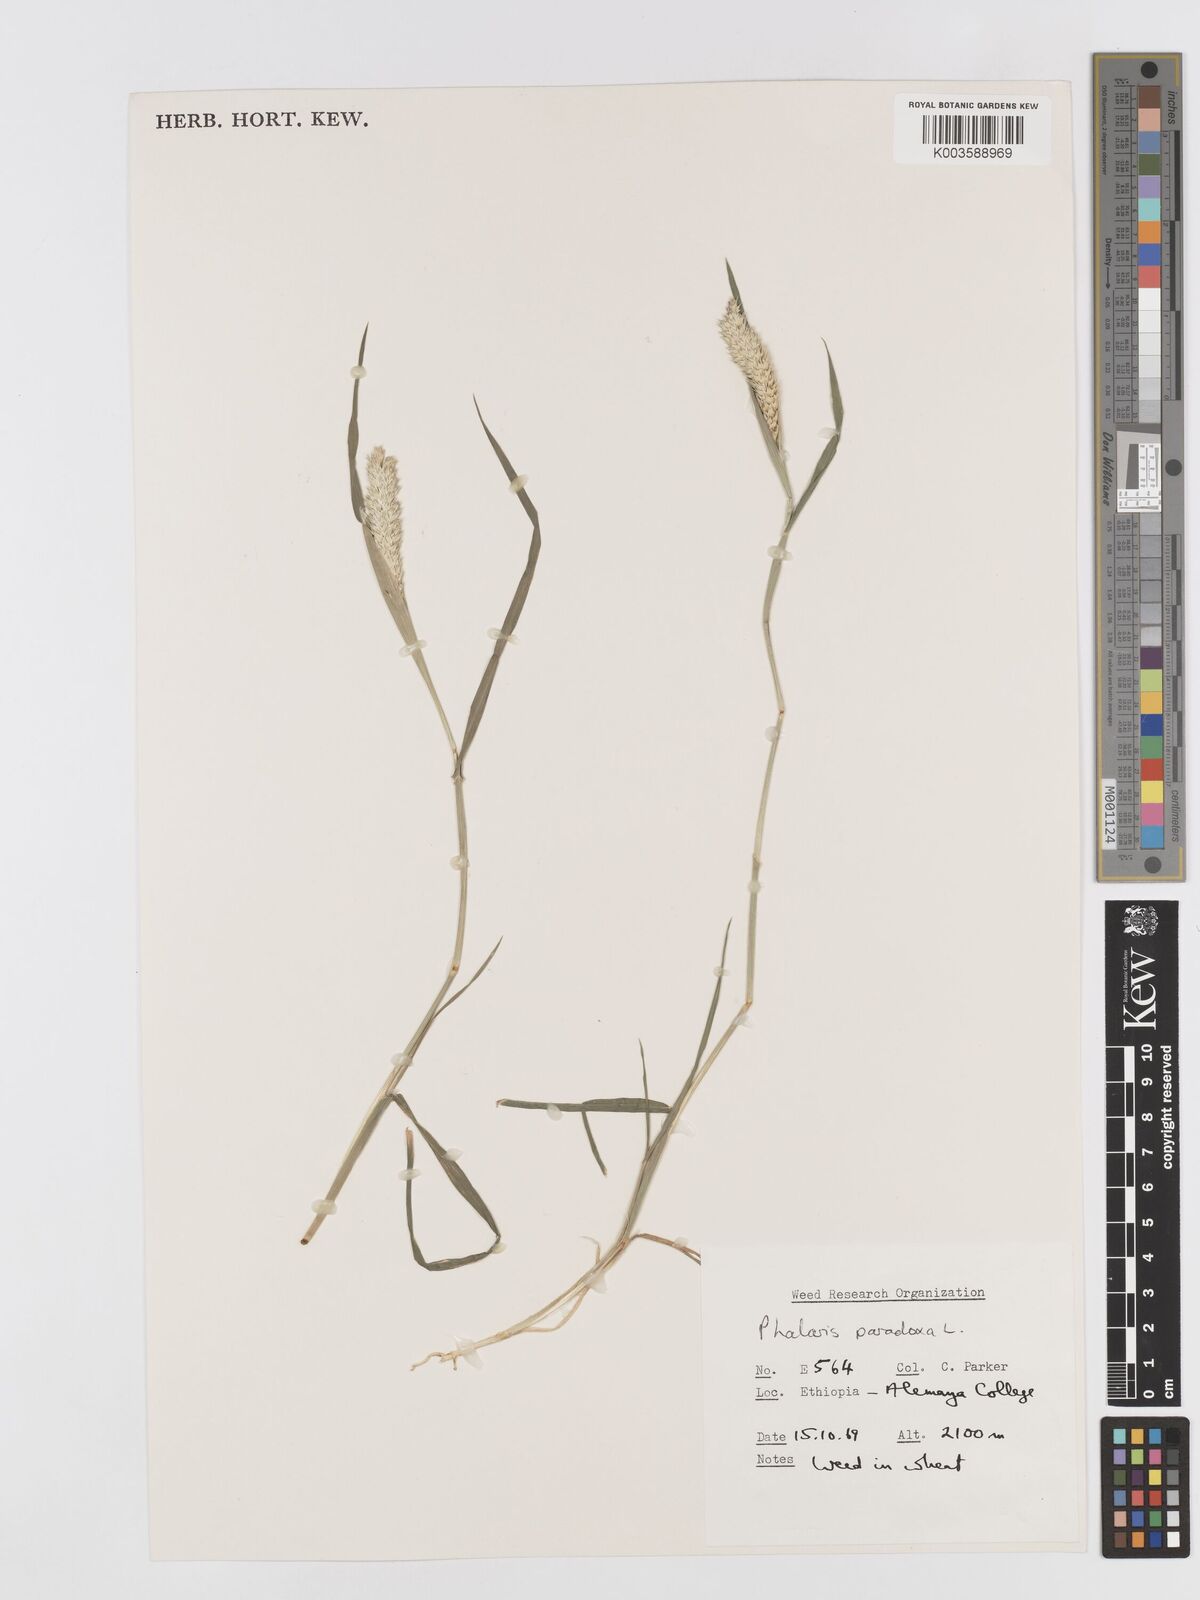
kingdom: Plantae
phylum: Tracheophyta
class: Liliopsida
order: Poales
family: Poaceae
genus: Phalaris
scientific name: Phalaris paradoxa
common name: Awned canary-grass
